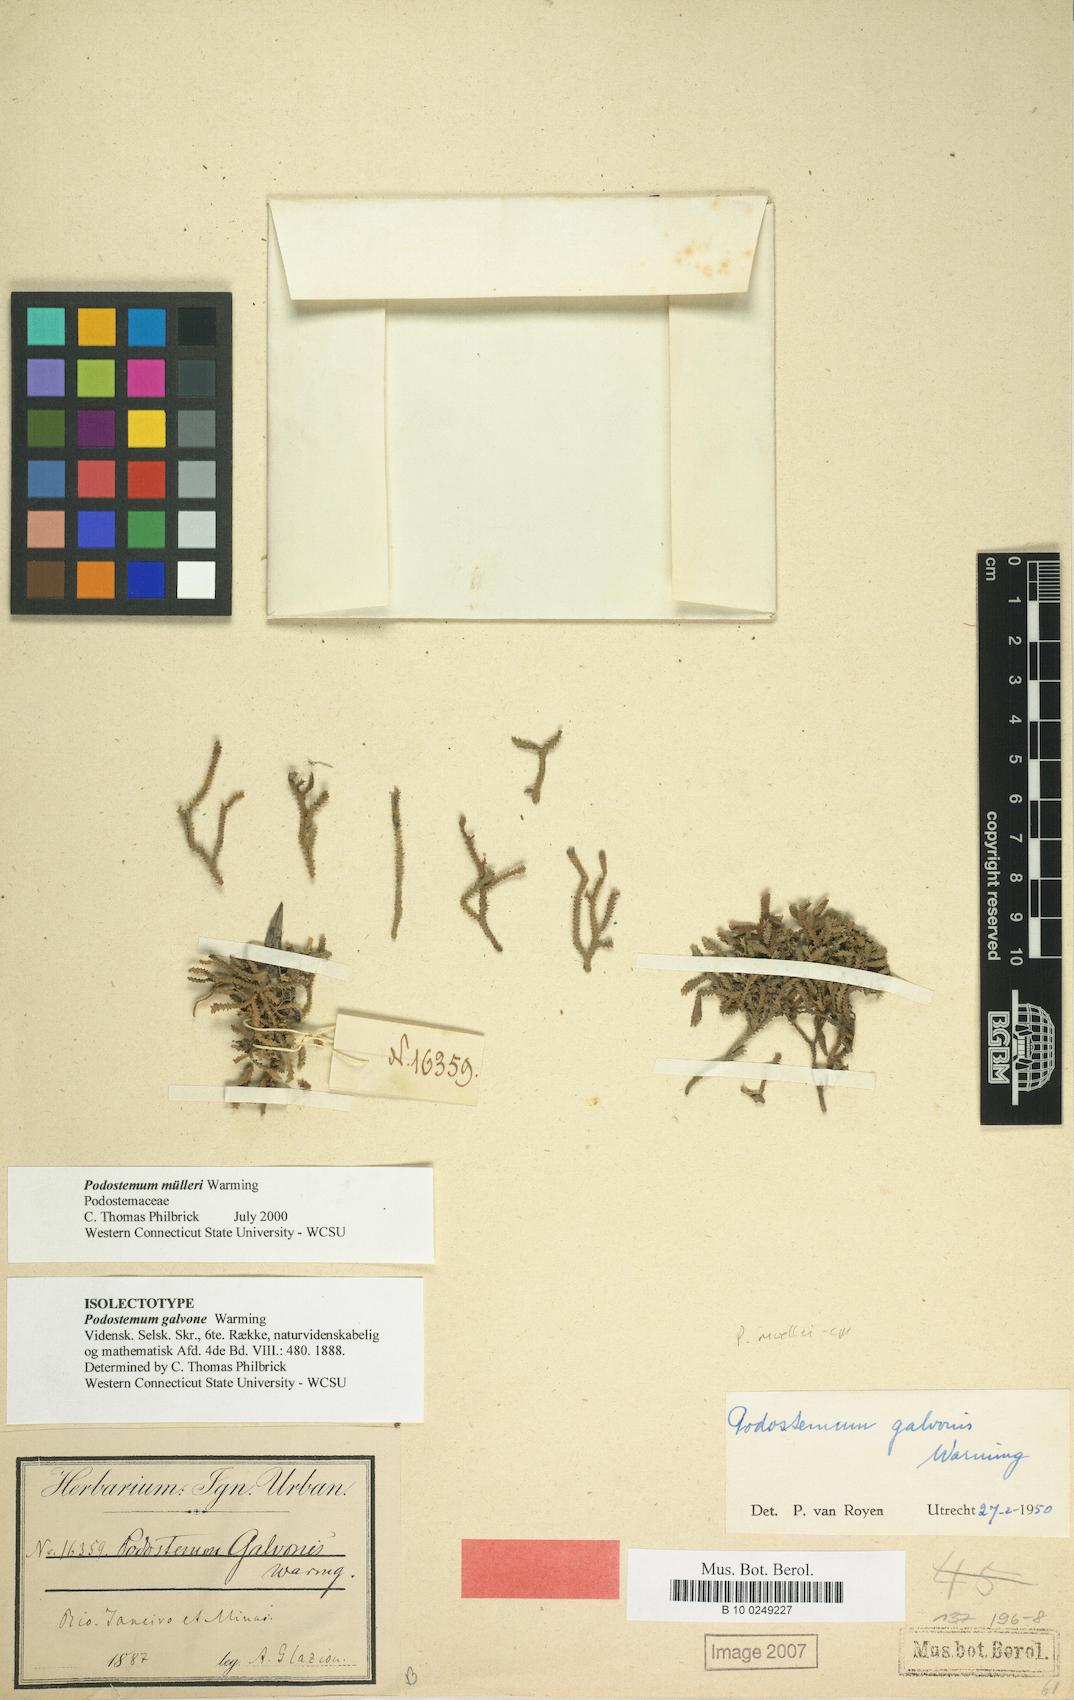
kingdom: Plantae
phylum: Tracheophyta
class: Magnoliopsida
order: Malpighiales
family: Podostemaceae
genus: Podostemum
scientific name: Podostemum muelleri
